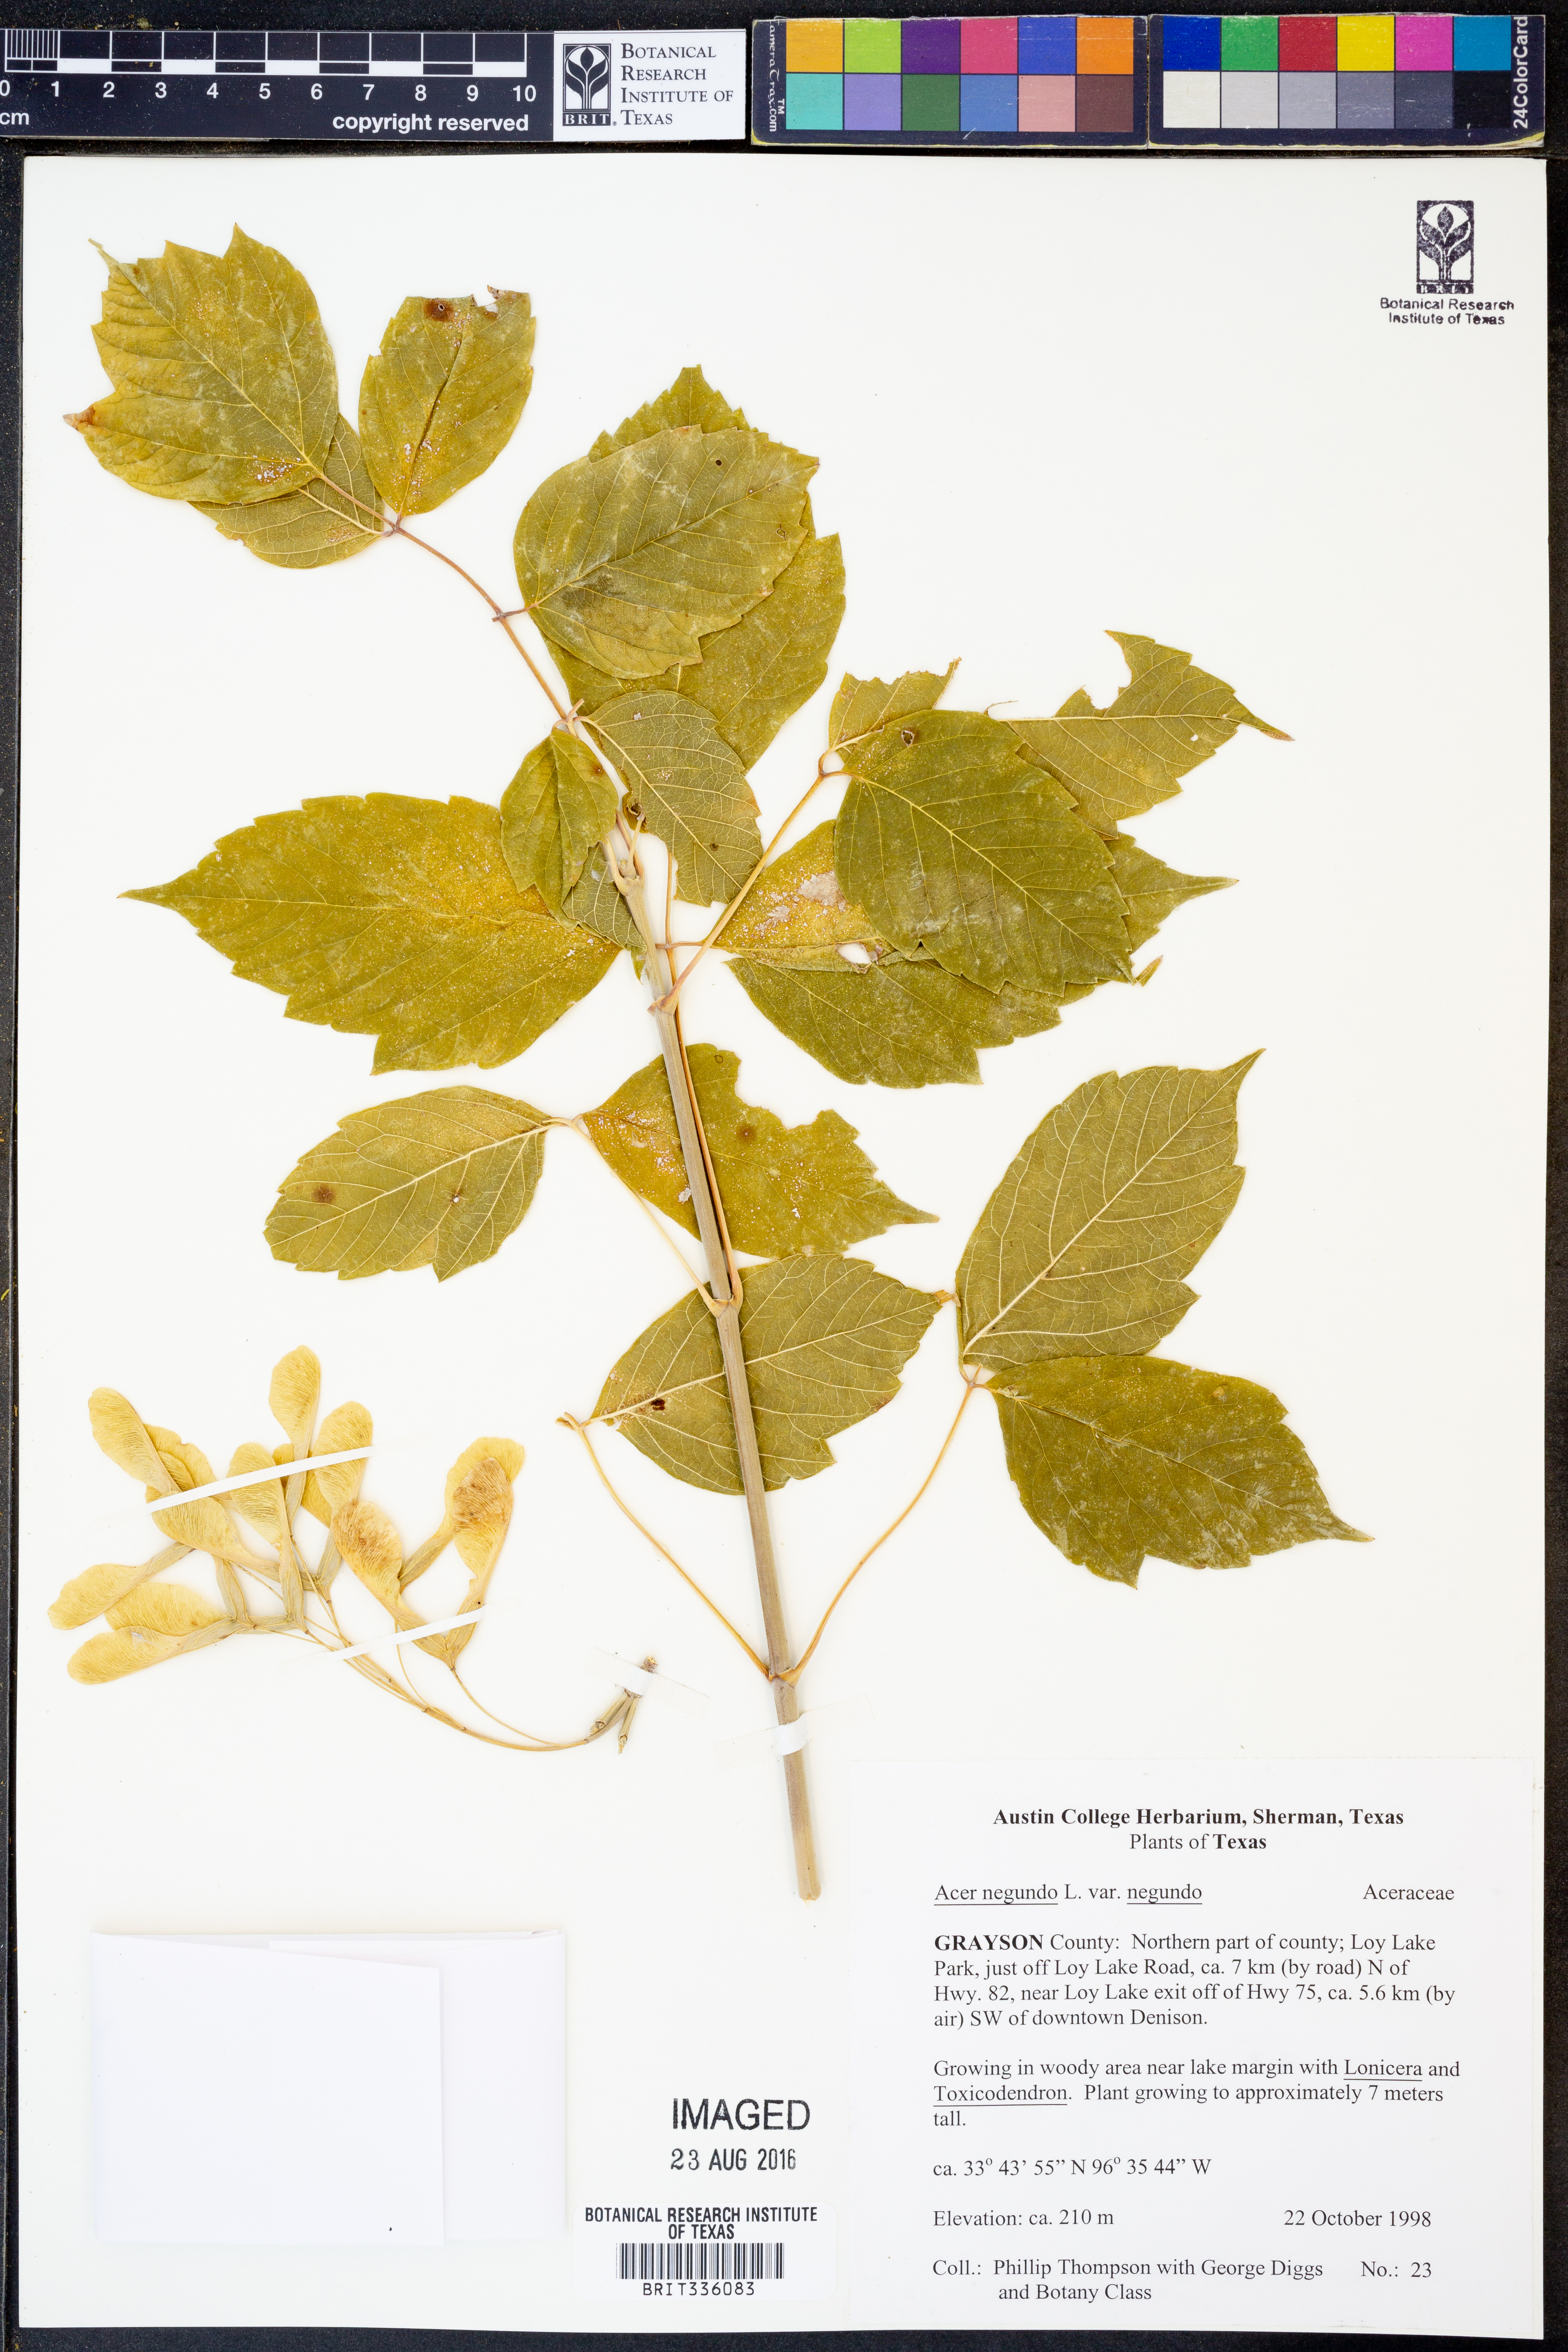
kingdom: Plantae
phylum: Tracheophyta
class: Magnoliopsida
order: Sapindales
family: Sapindaceae
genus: Acer
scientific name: Acer negundo
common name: Ashleaf maple
